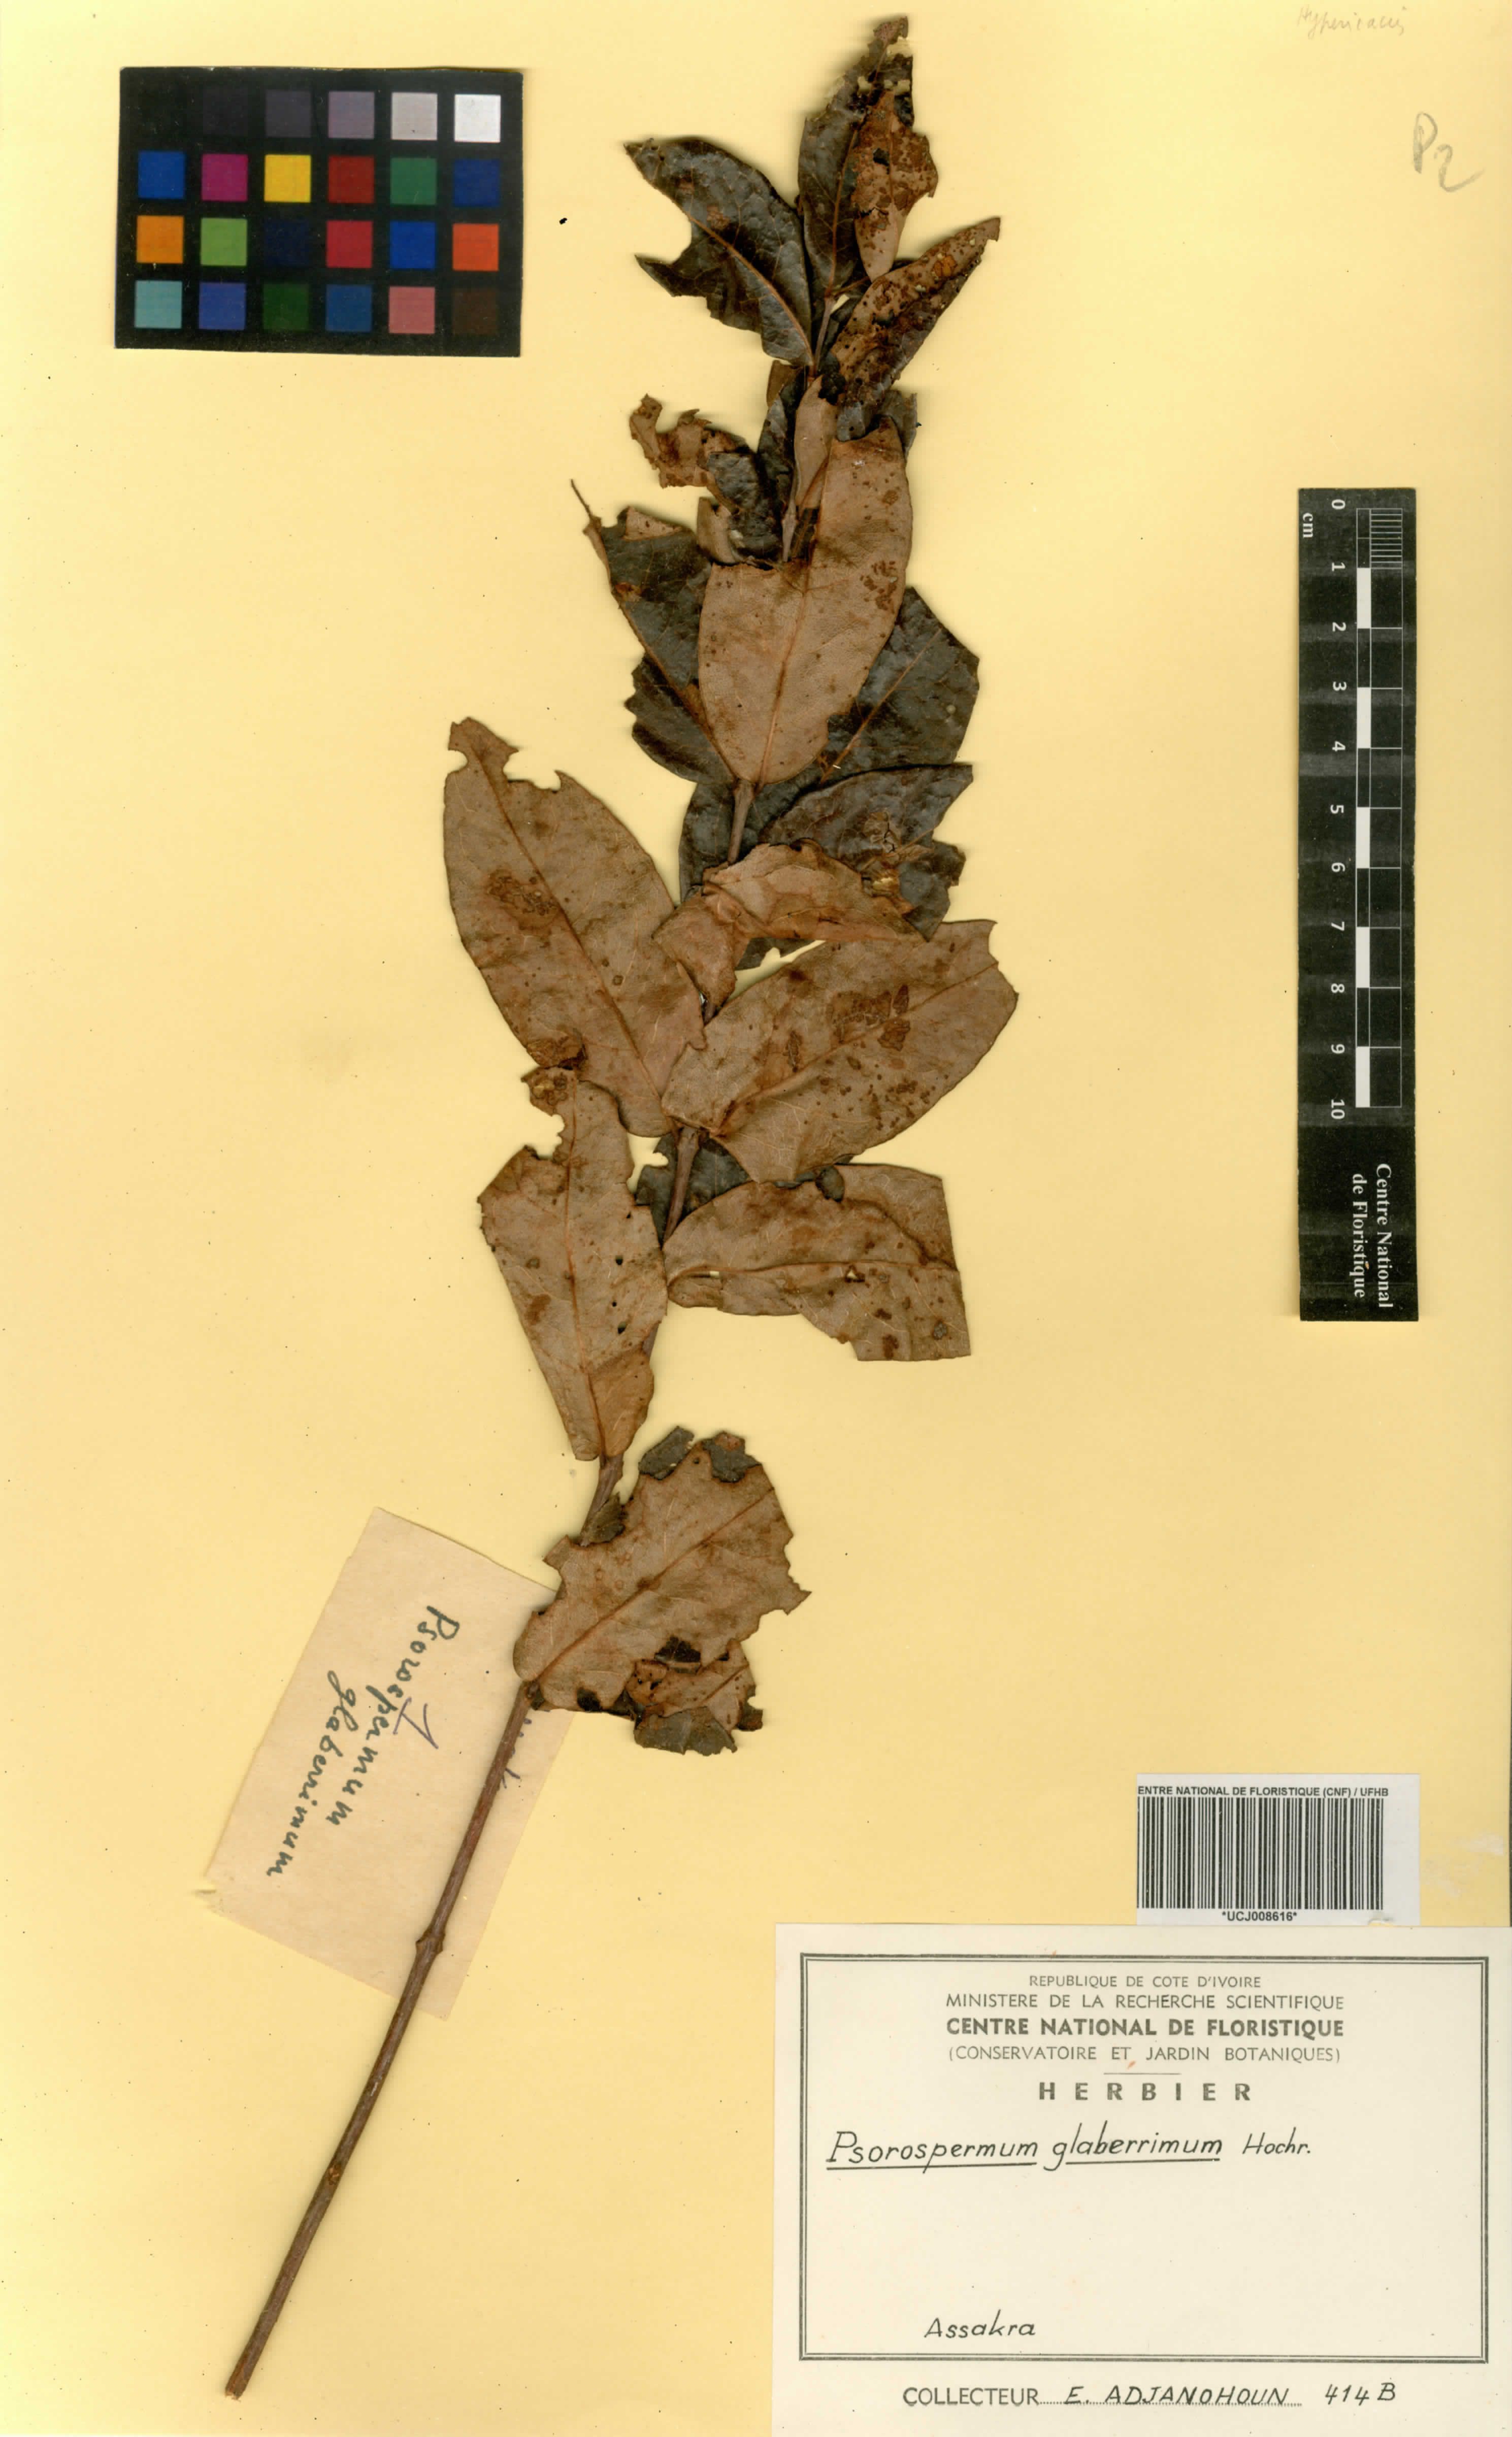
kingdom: Plantae
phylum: Tracheophyta
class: Magnoliopsida
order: Malpighiales
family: Hypericaceae
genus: Psorospermum
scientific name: Psorospermum glaberrimum
